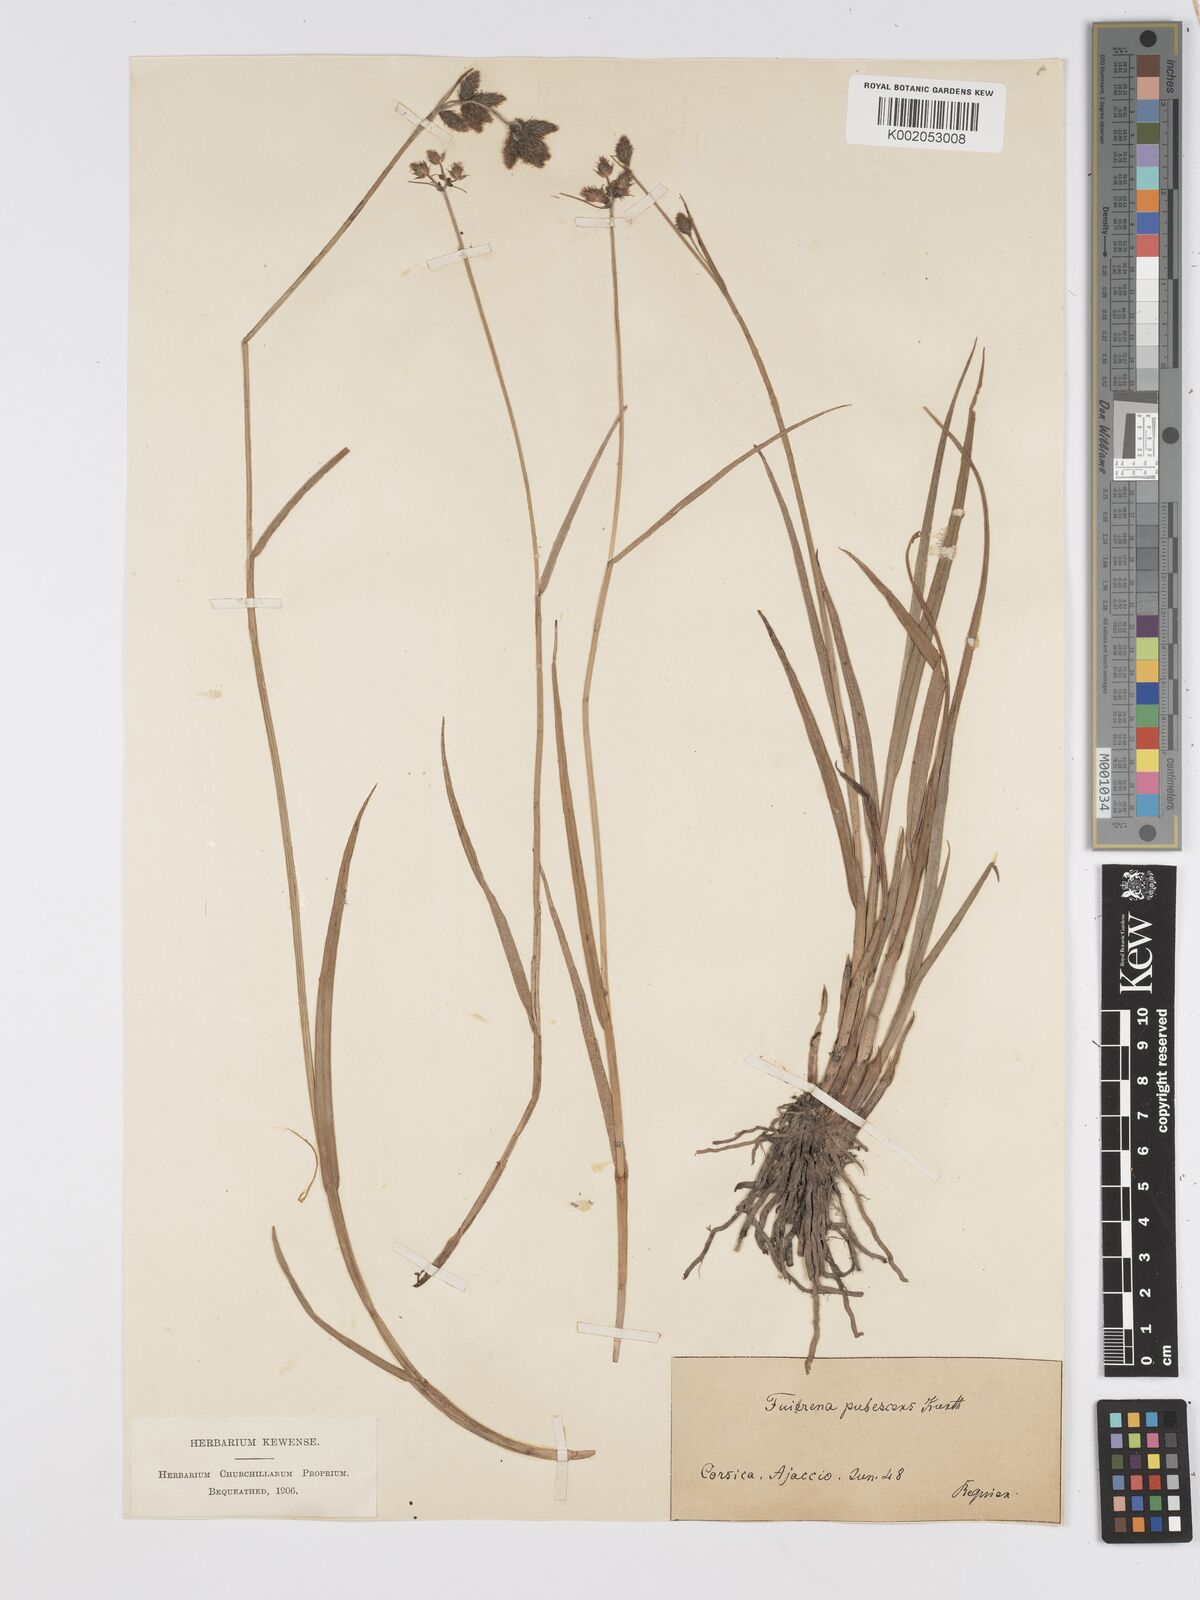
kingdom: Plantae
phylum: Tracheophyta
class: Liliopsida
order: Poales
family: Cyperaceae
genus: Fuirena
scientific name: Fuirena pubescens
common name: Hairy sedge
